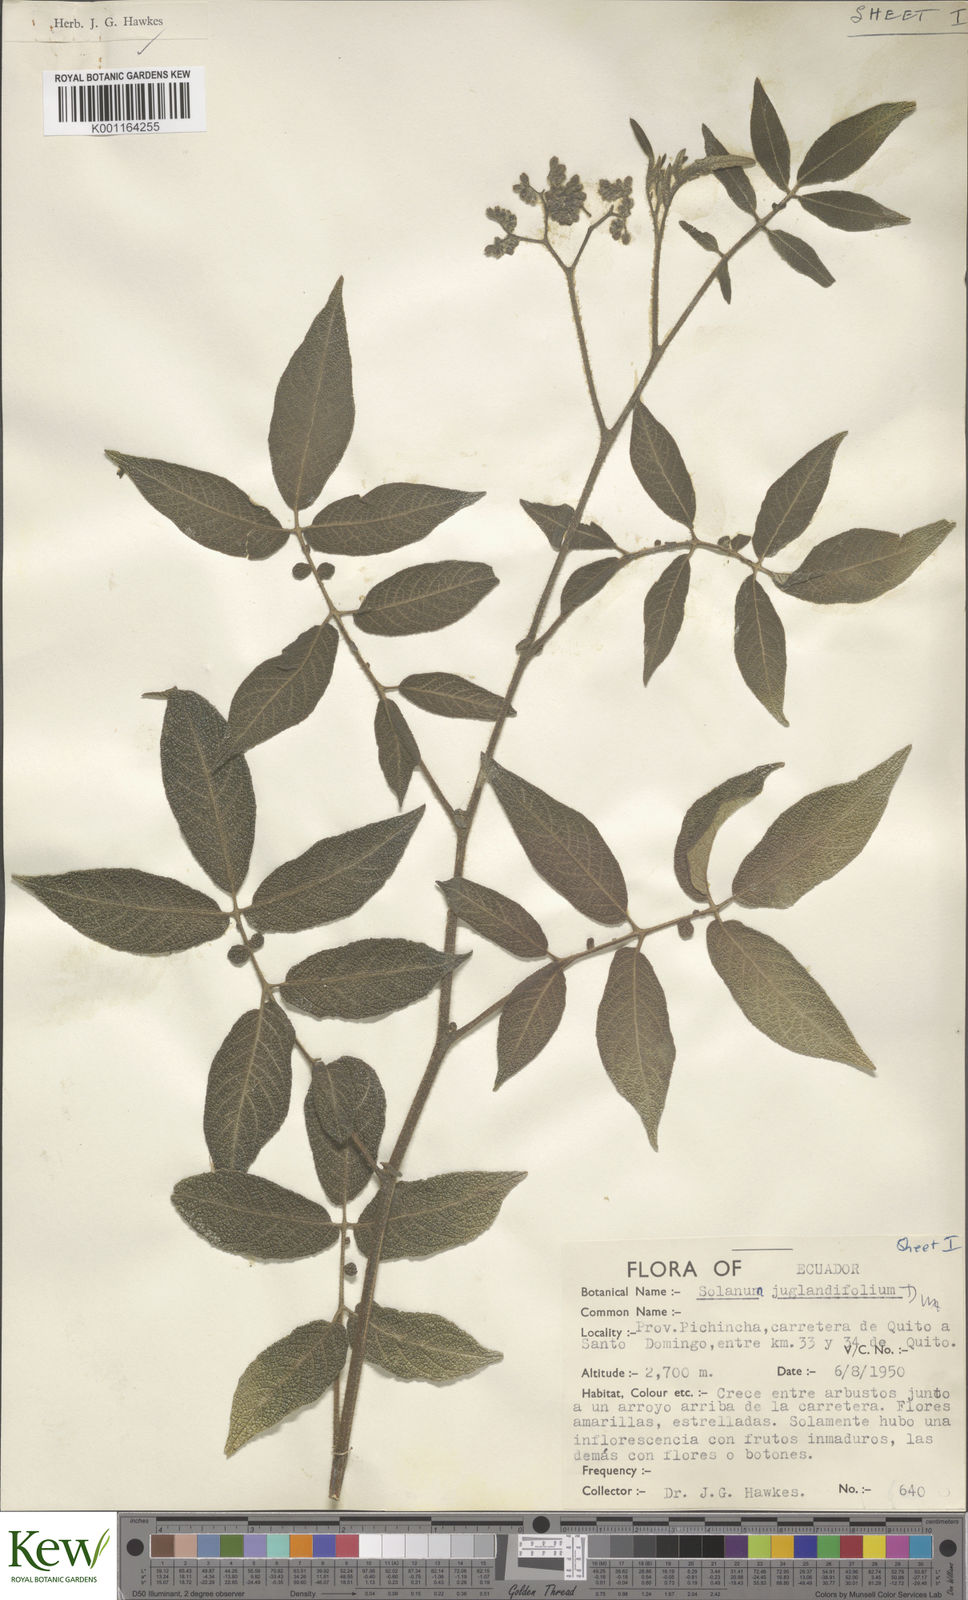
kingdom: Plantae
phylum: Tracheophyta
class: Magnoliopsida
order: Solanales
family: Solanaceae
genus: Solanum
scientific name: Solanum juglandifolium
